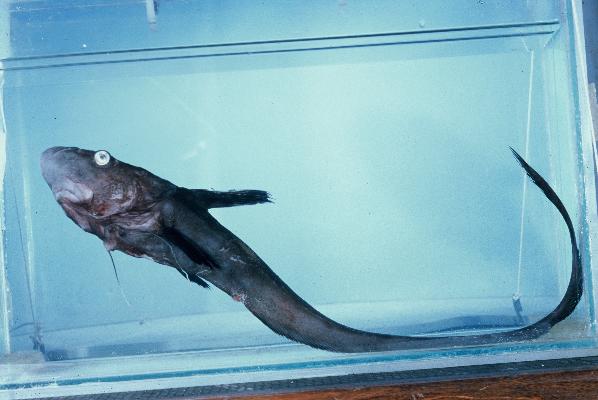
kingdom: Animalia
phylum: Chordata
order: Ateleopodiformes
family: Ateleopodidae
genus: Ateleopus
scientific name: Ateleopus natalensis
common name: Jelly-head fish
